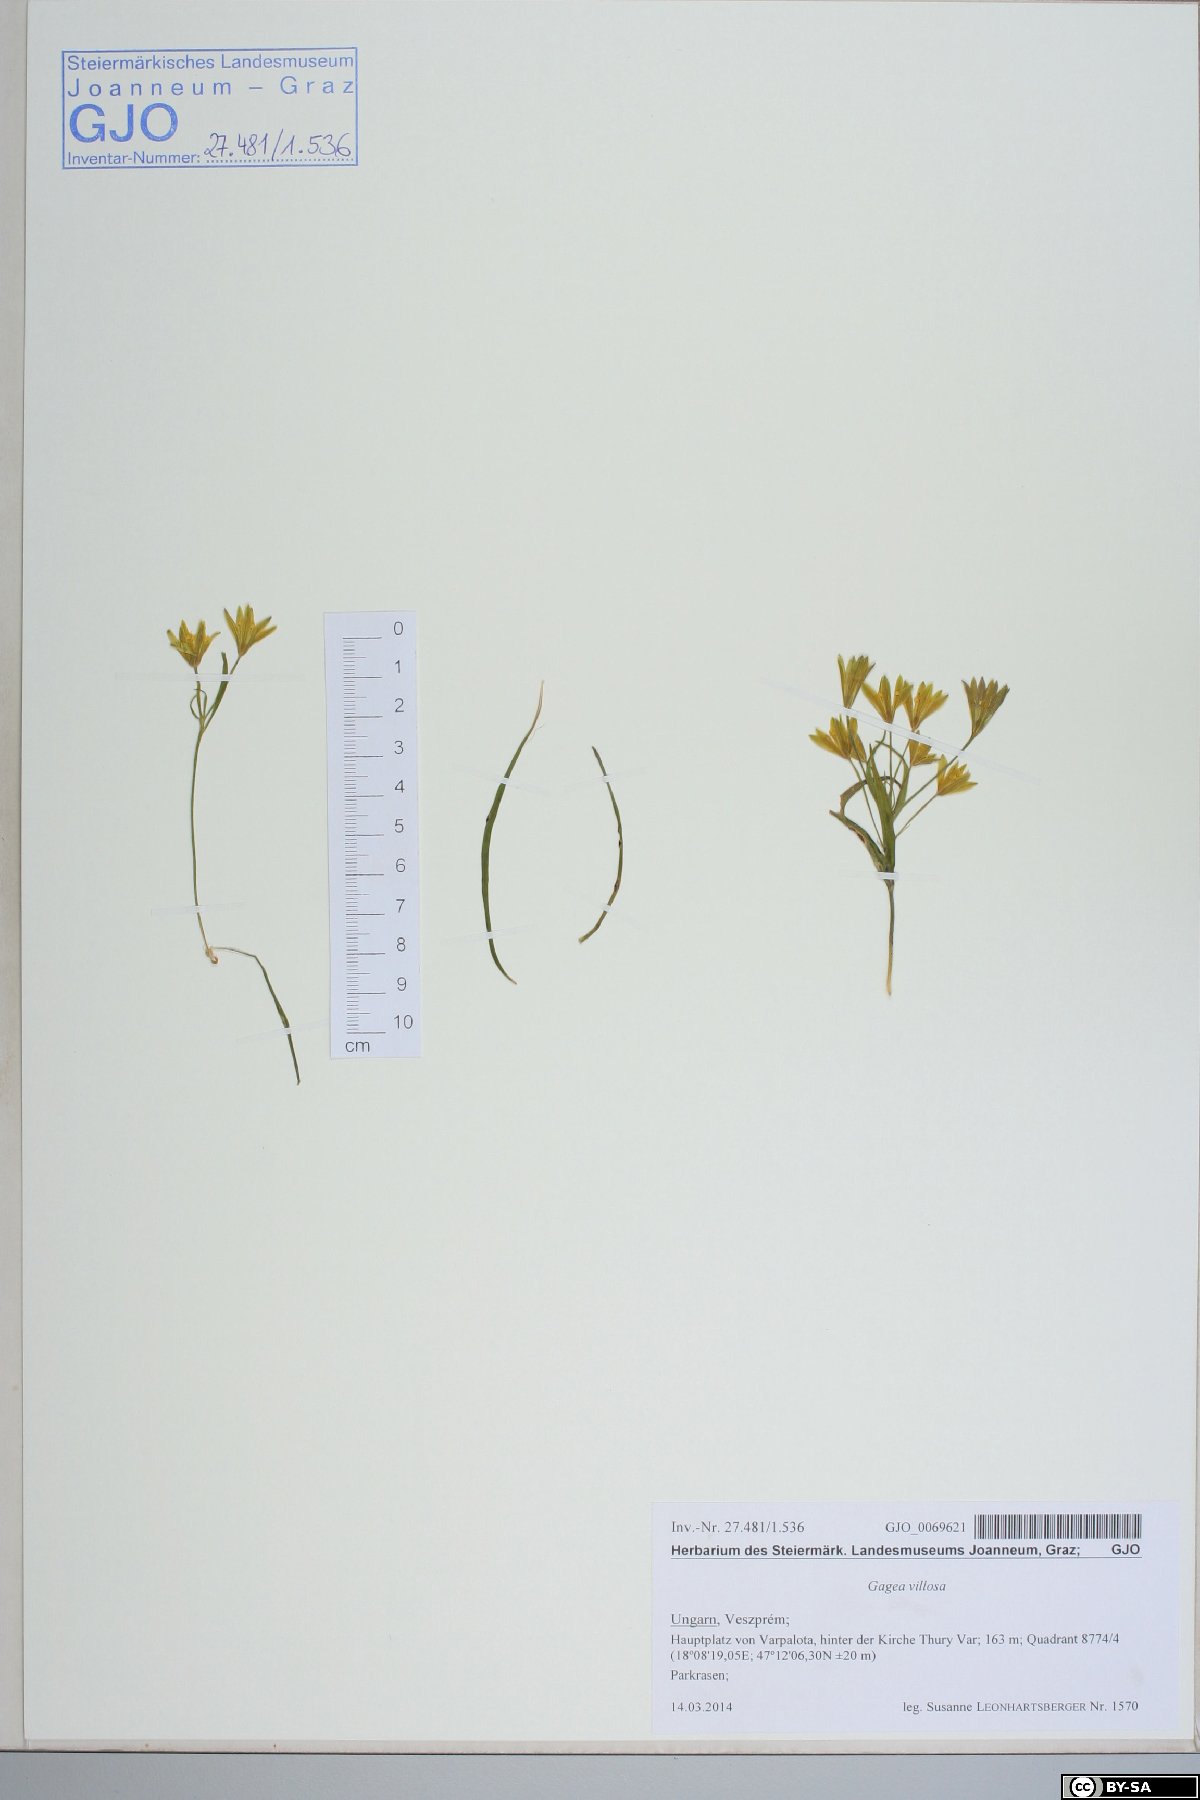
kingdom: Plantae
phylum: Tracheophyta
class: Liliopsida
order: Liliales
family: Liliaceae
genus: Gagea
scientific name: Gagea villosa
